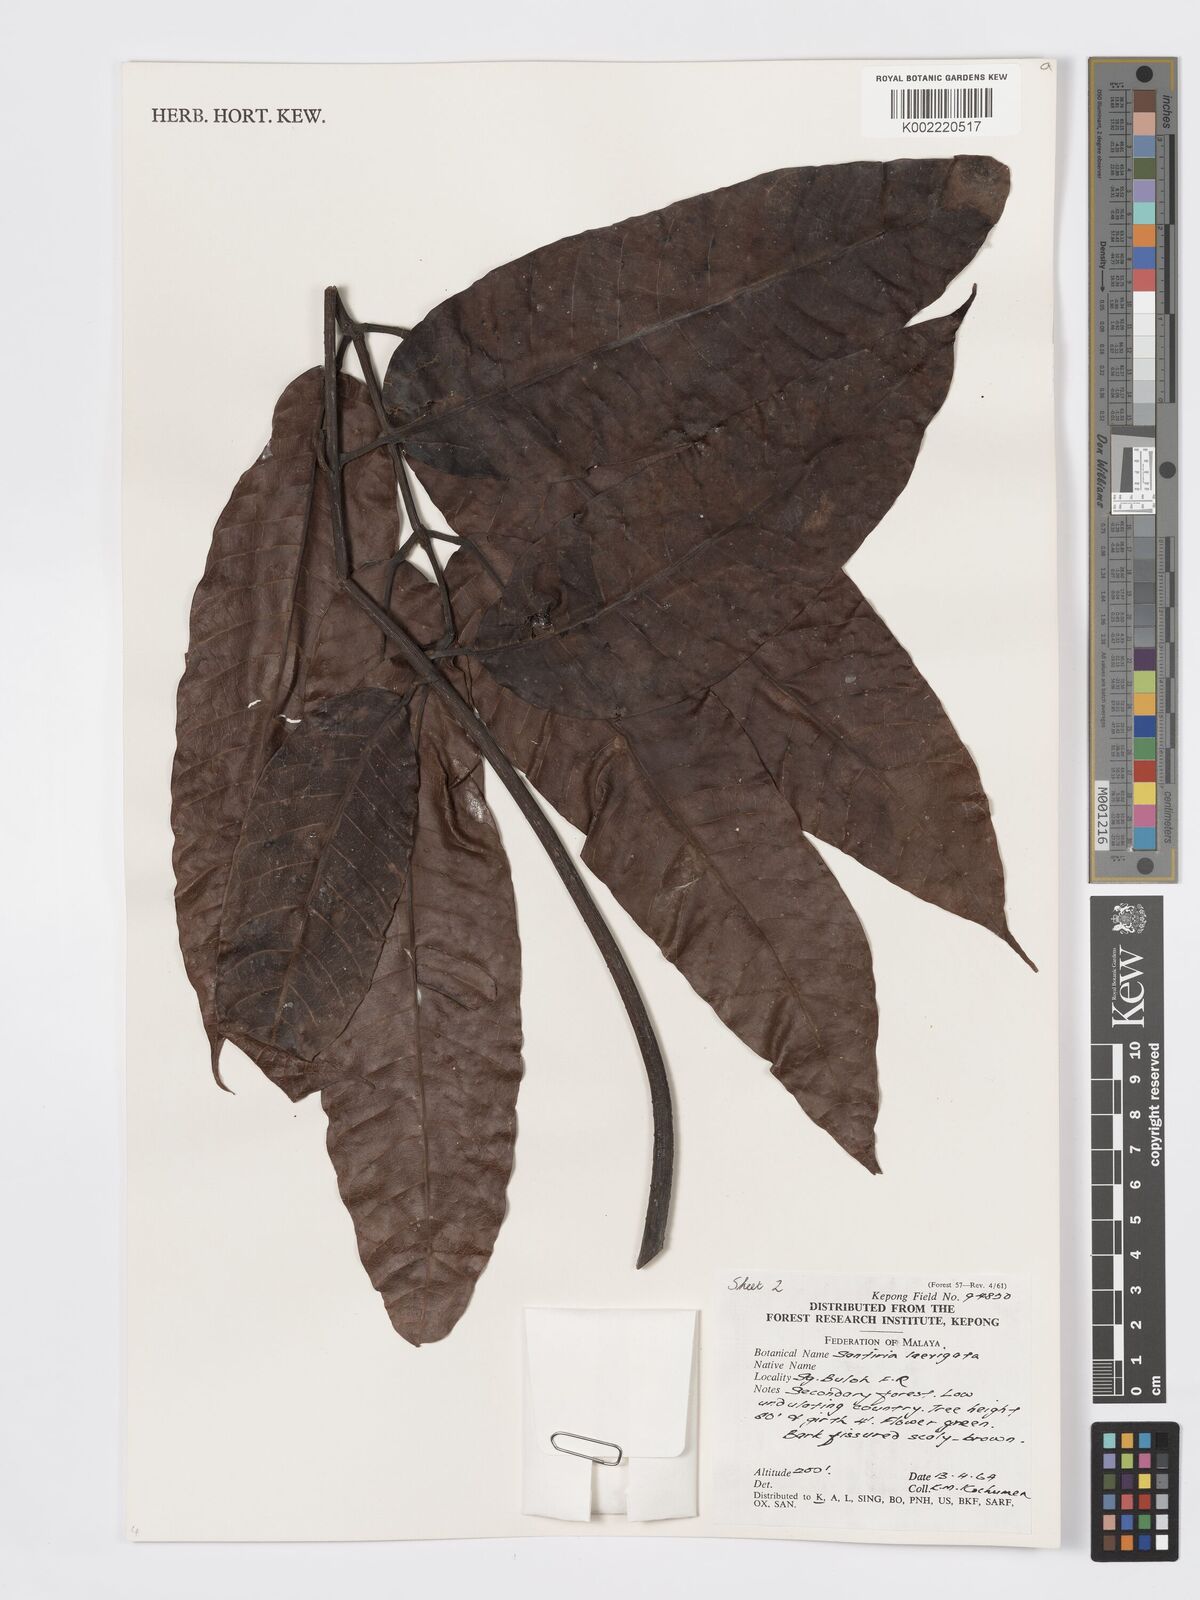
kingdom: Plantae
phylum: Tracheophyta
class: Magnoliopsida
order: Sapindales
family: Burseraceae
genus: Santiria
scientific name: Santiria laevigata
